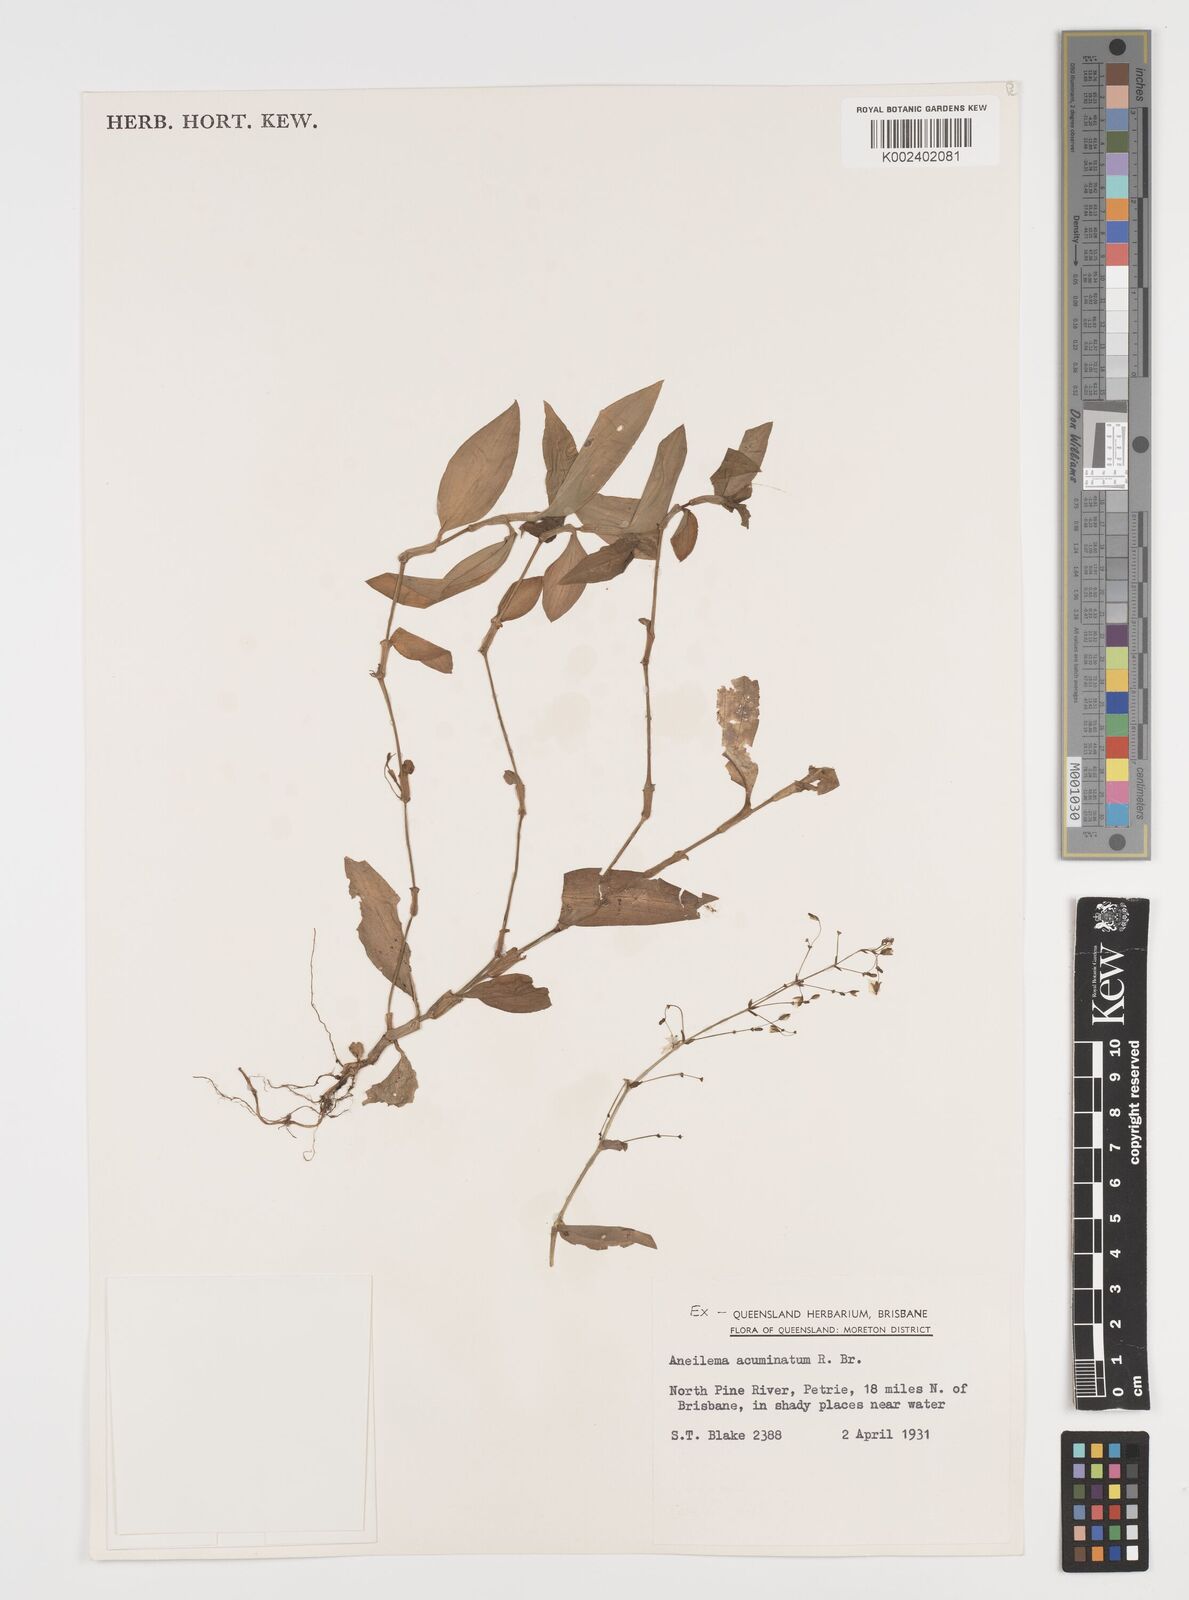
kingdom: Plantae
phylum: Tracheophyta
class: Liliopsida
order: Commelinales
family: Commelinaceae
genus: Aneilema
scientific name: Aneilema acuminatum
